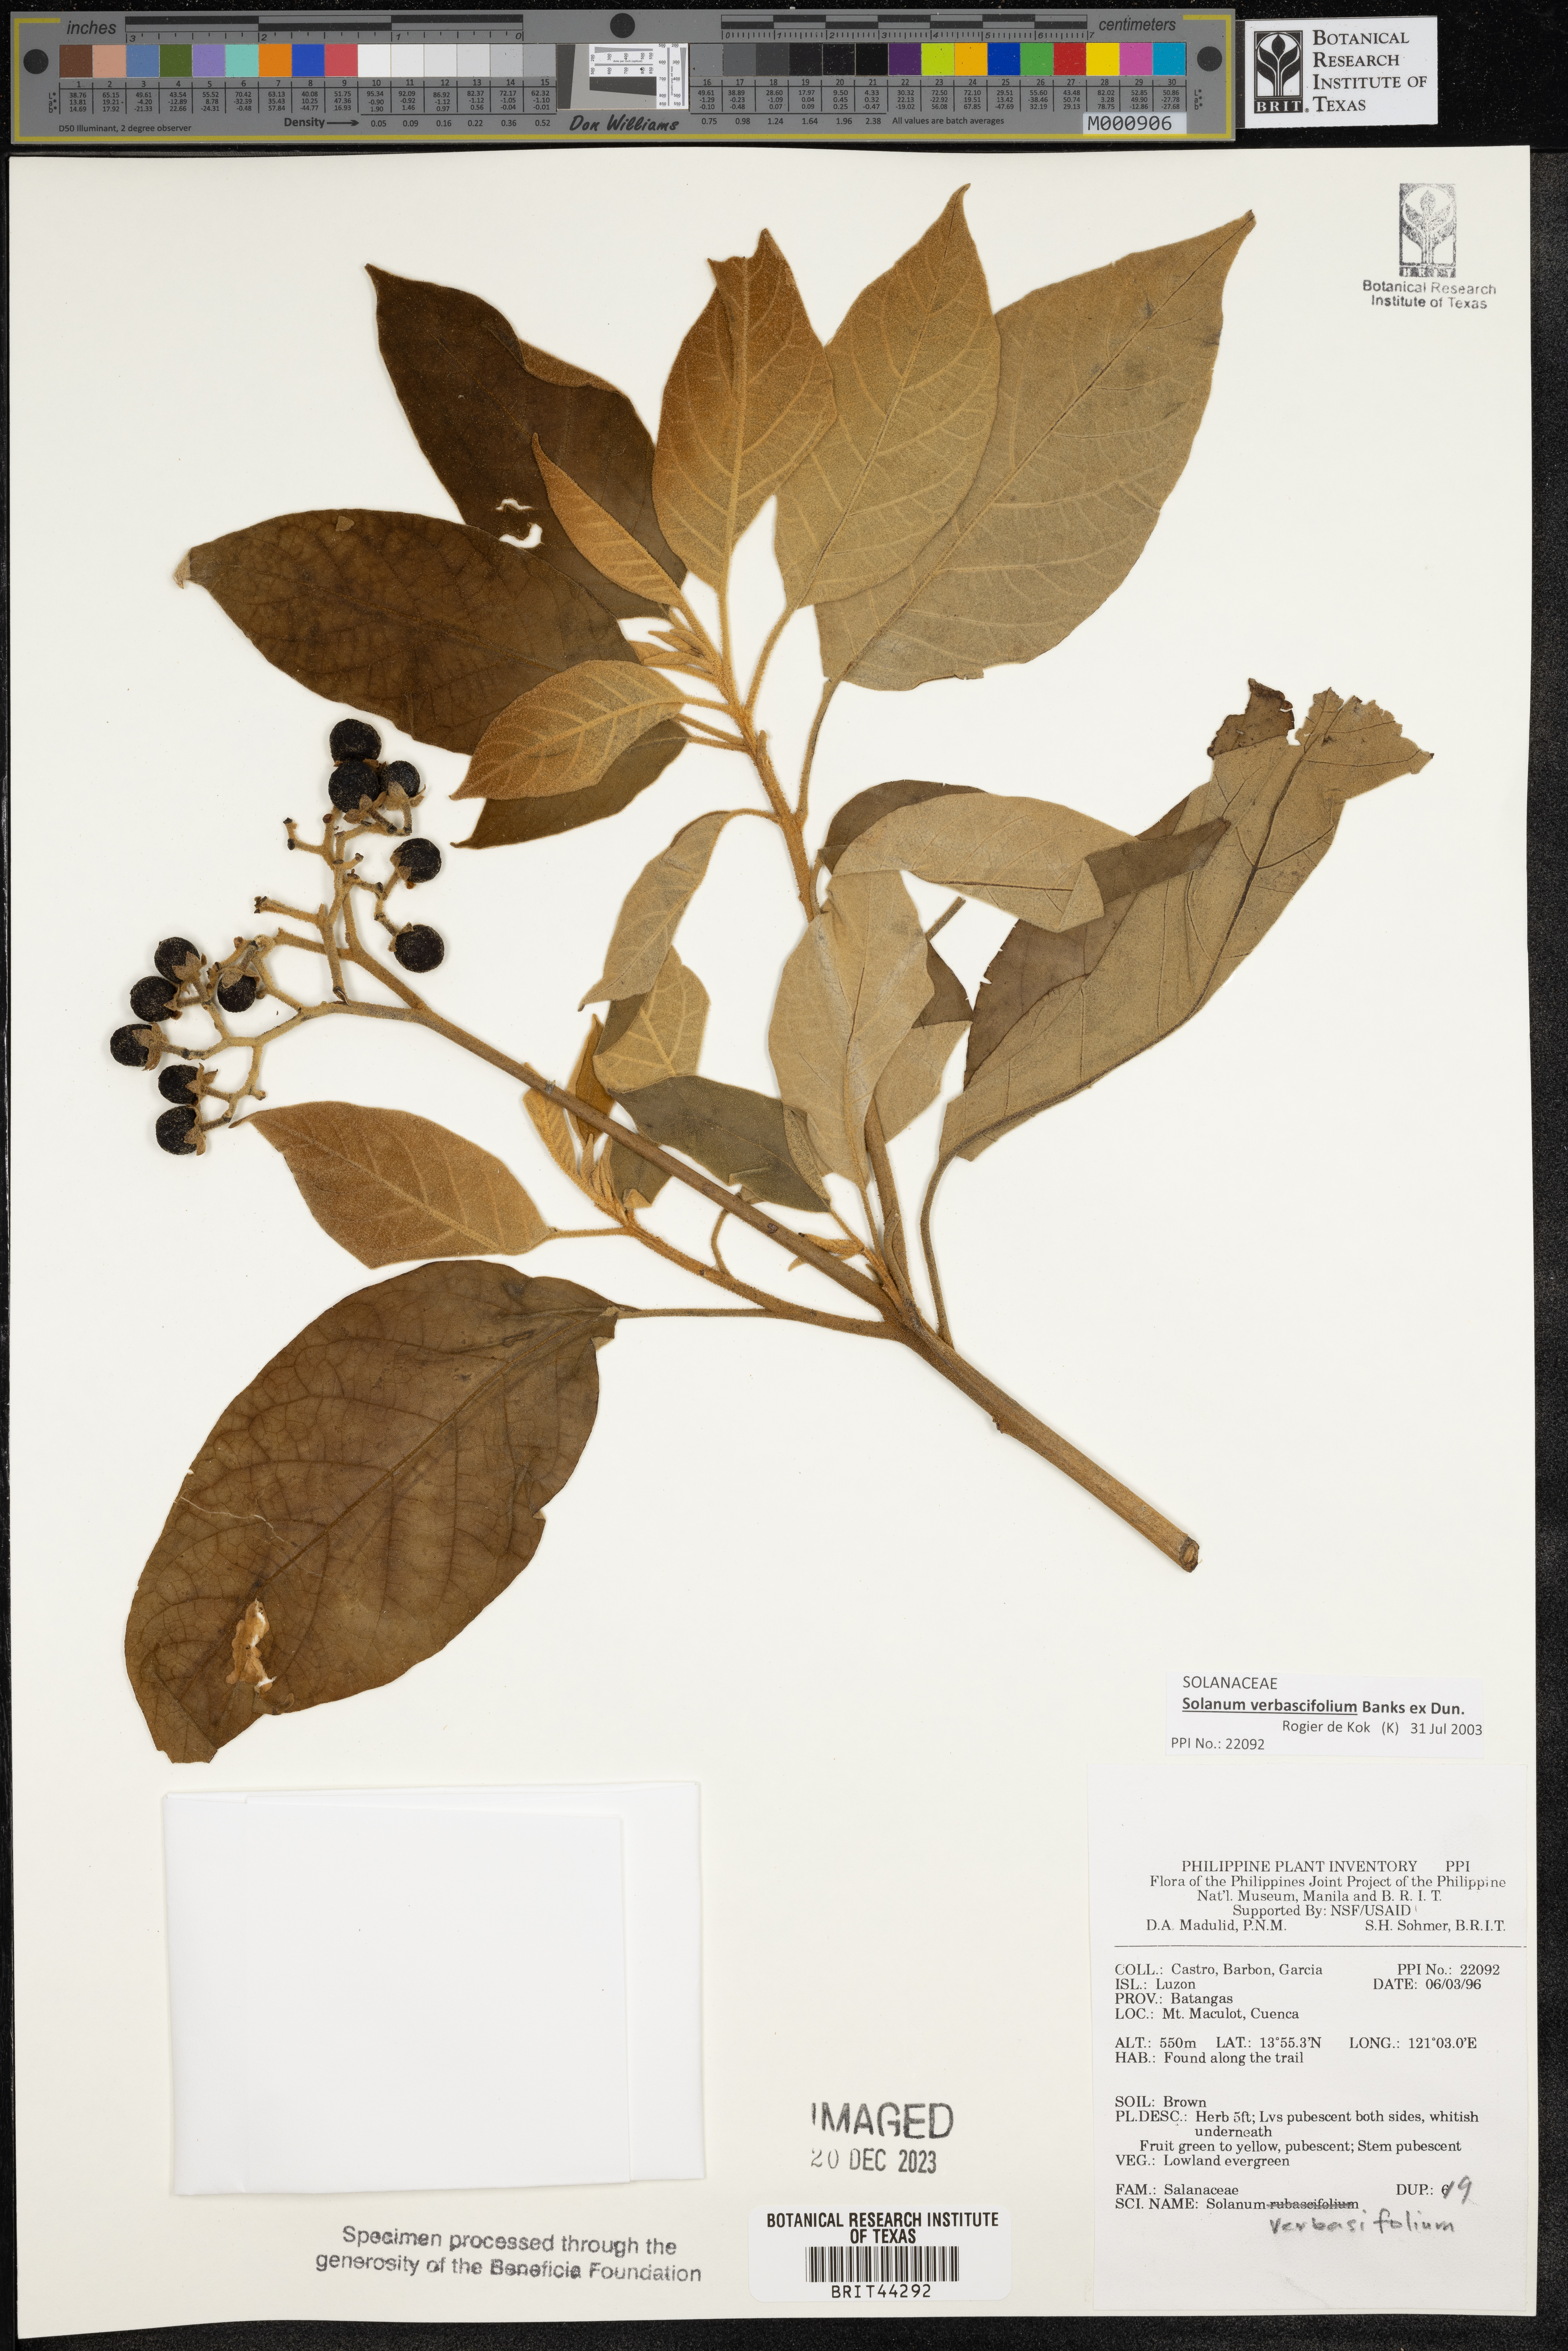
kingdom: Plantae
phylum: Tracheophyta
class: Magnoliopsida
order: Solanales
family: Solanaceae
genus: Solanum
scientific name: Solanum
